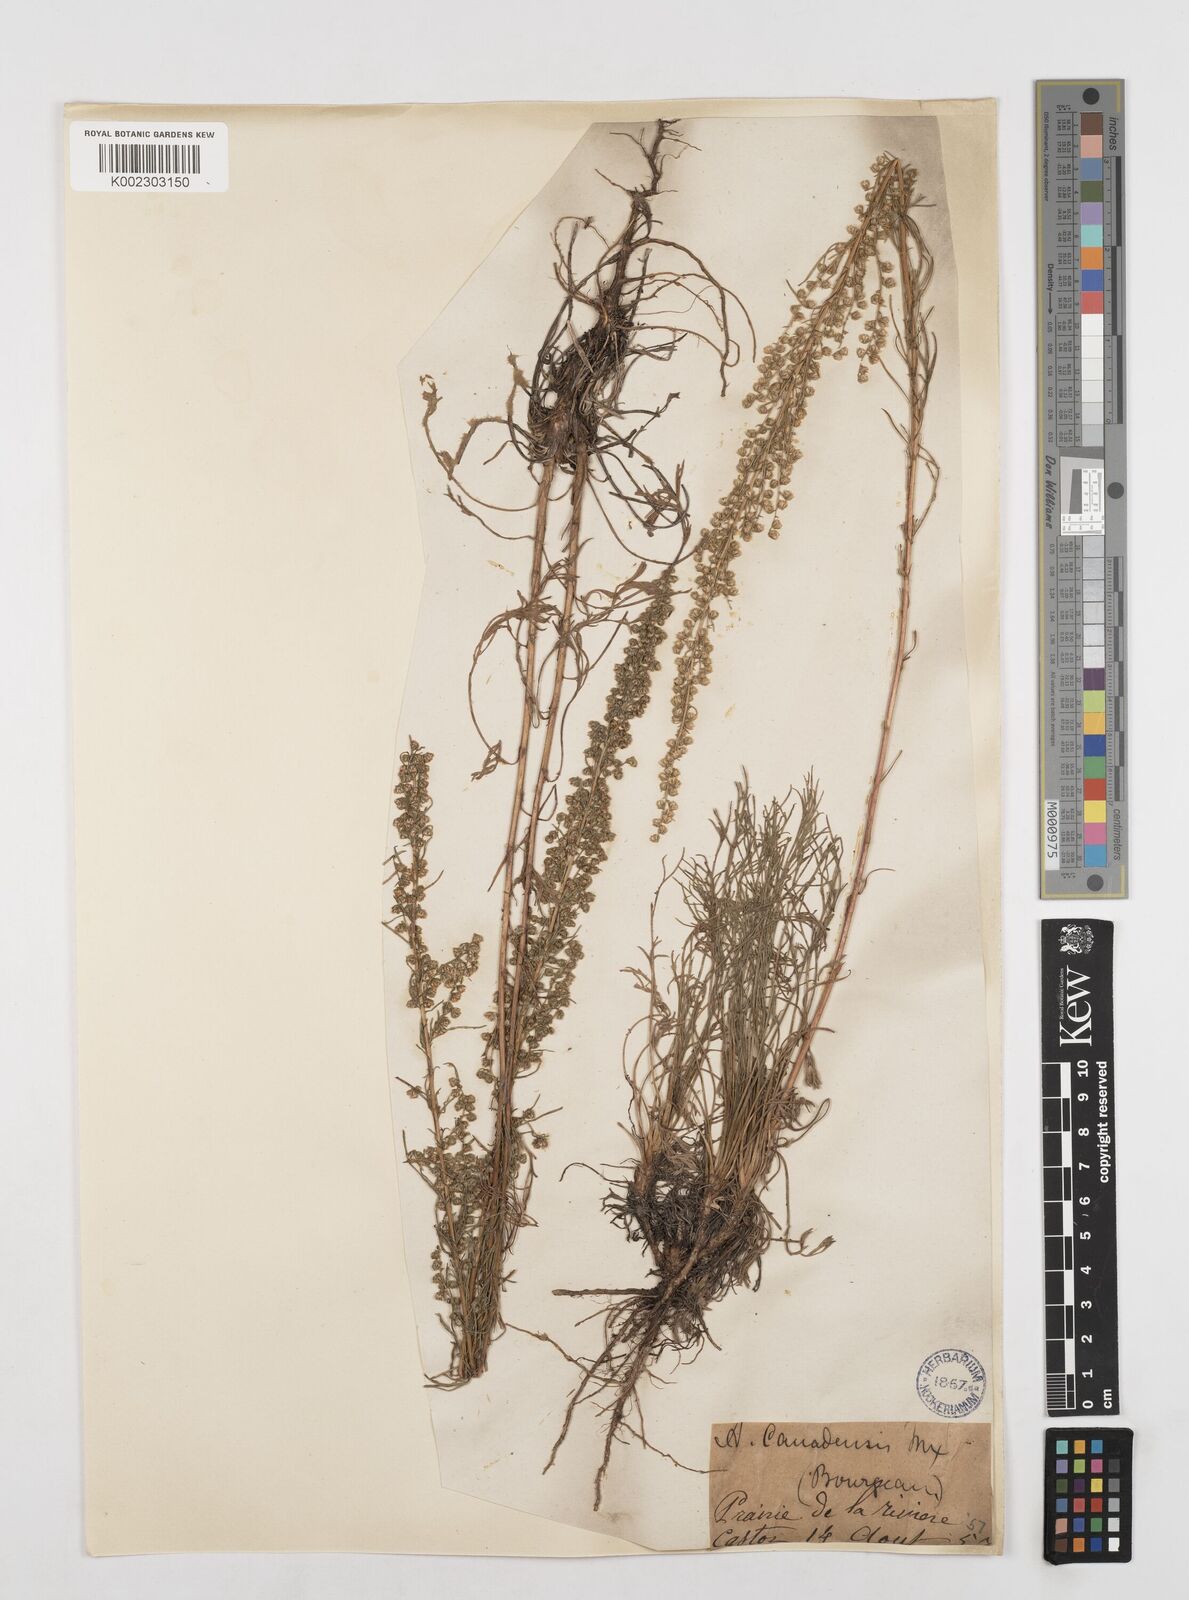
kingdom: Plantae
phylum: Tracheophyta
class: Magnoliopsida
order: Asterales
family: Asteraceae
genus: Artemisia
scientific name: Artemisia campestris
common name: Field wormwood
